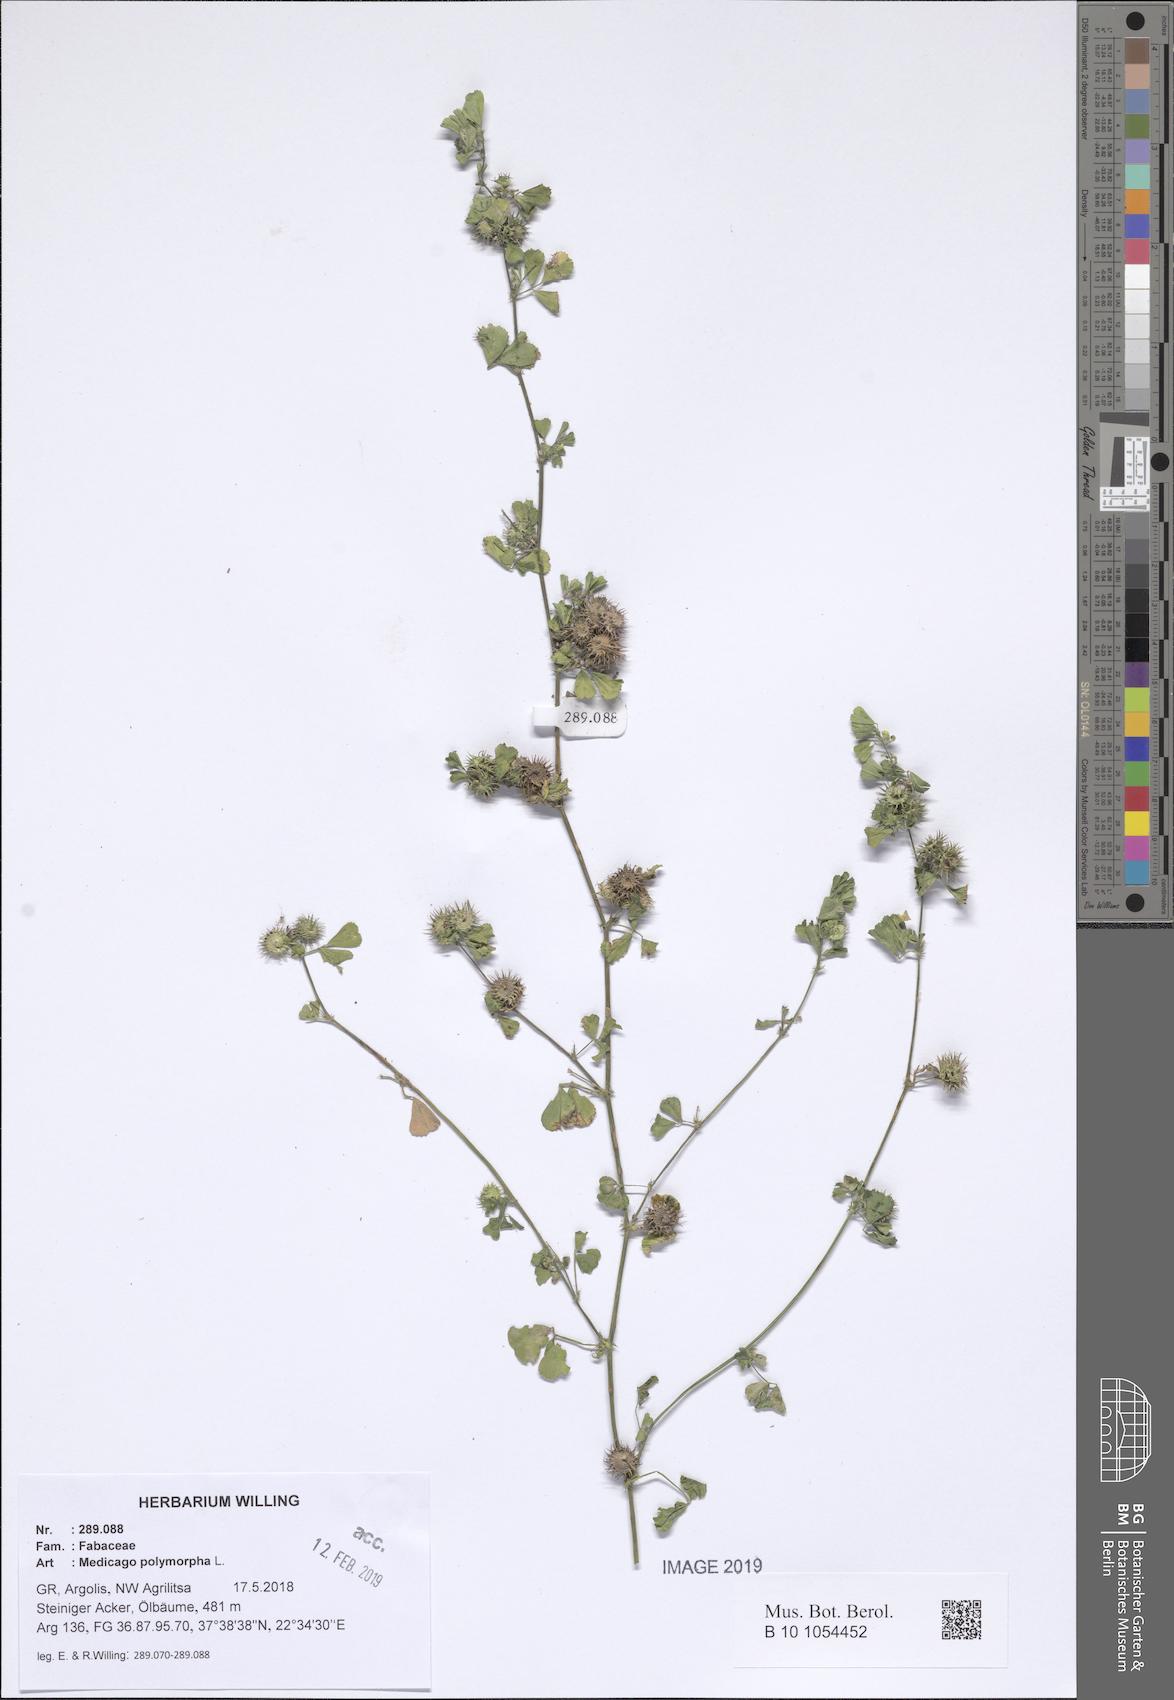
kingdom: Plantae
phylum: Tracheophyta
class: Magnoliopsida
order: Fabales
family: Fabaceae
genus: Medicago
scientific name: Medicago polymorpha
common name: Burclover
